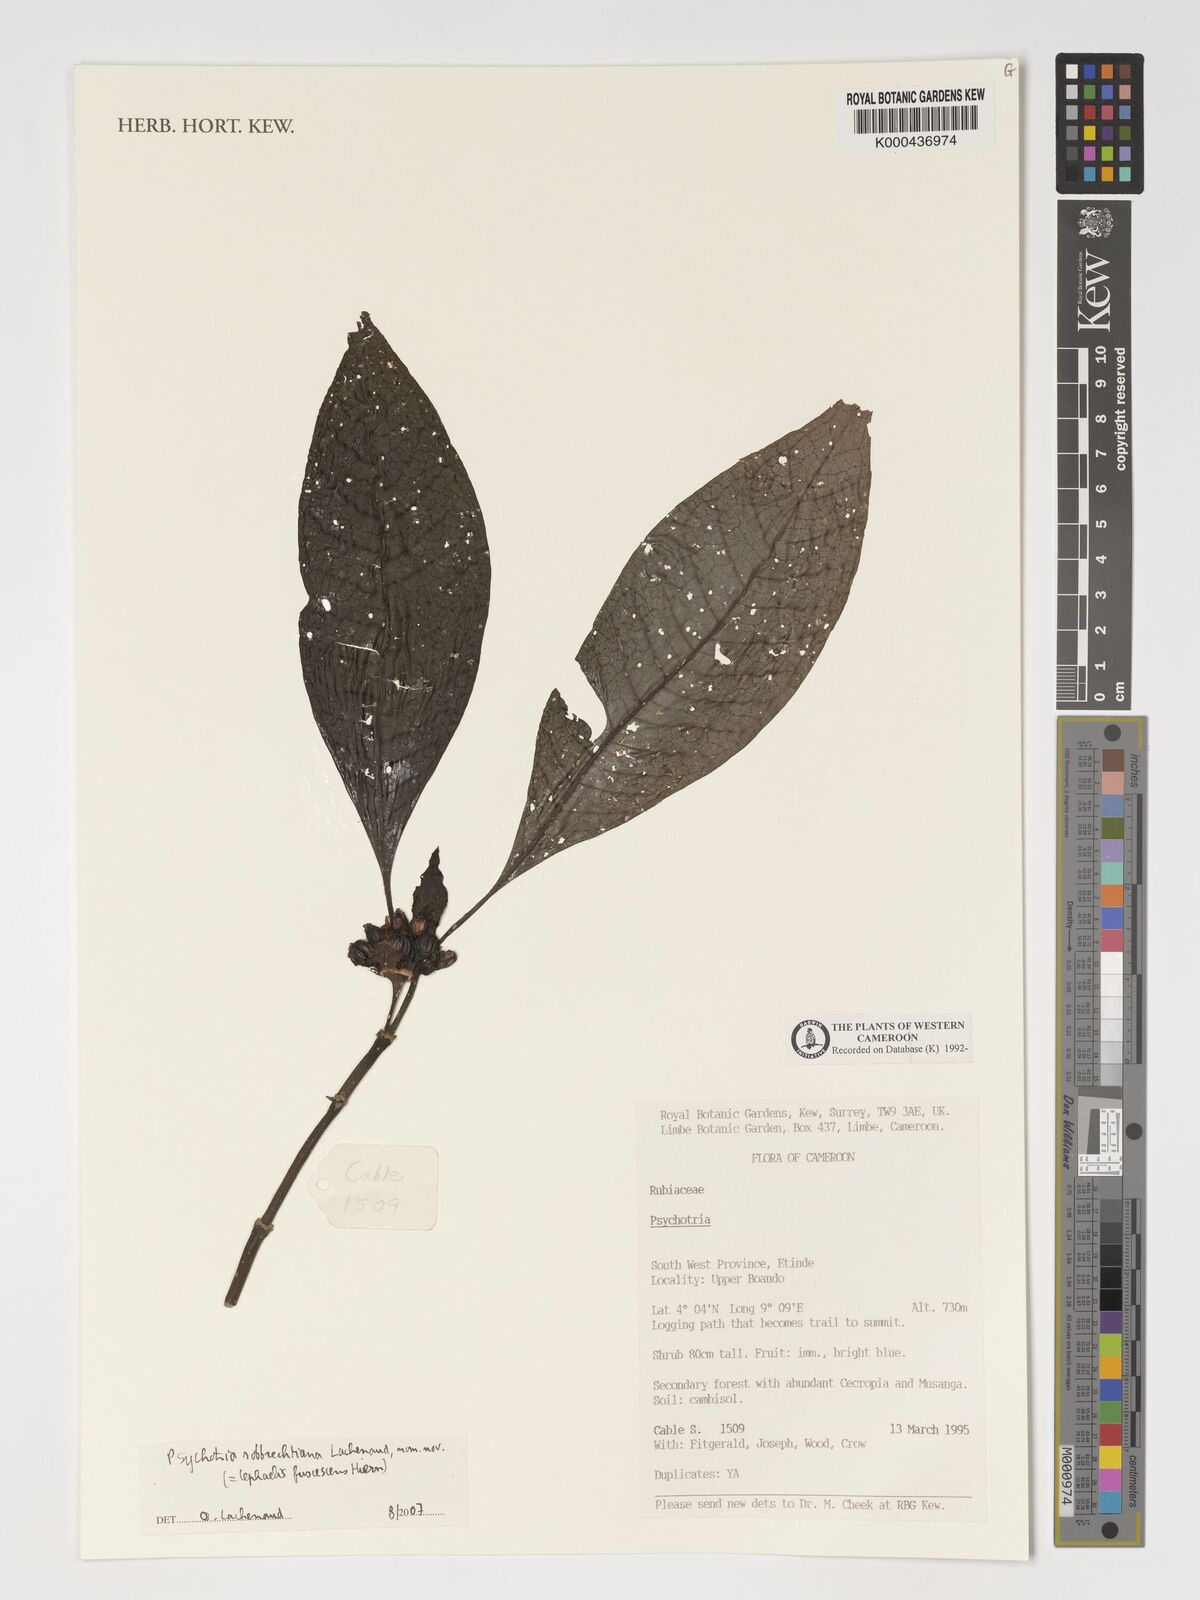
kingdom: Plantae
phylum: Tracheophyta
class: Magnoliopsida
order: Gentianales
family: Rubiaceae
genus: Psychotria
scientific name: Psychotria
